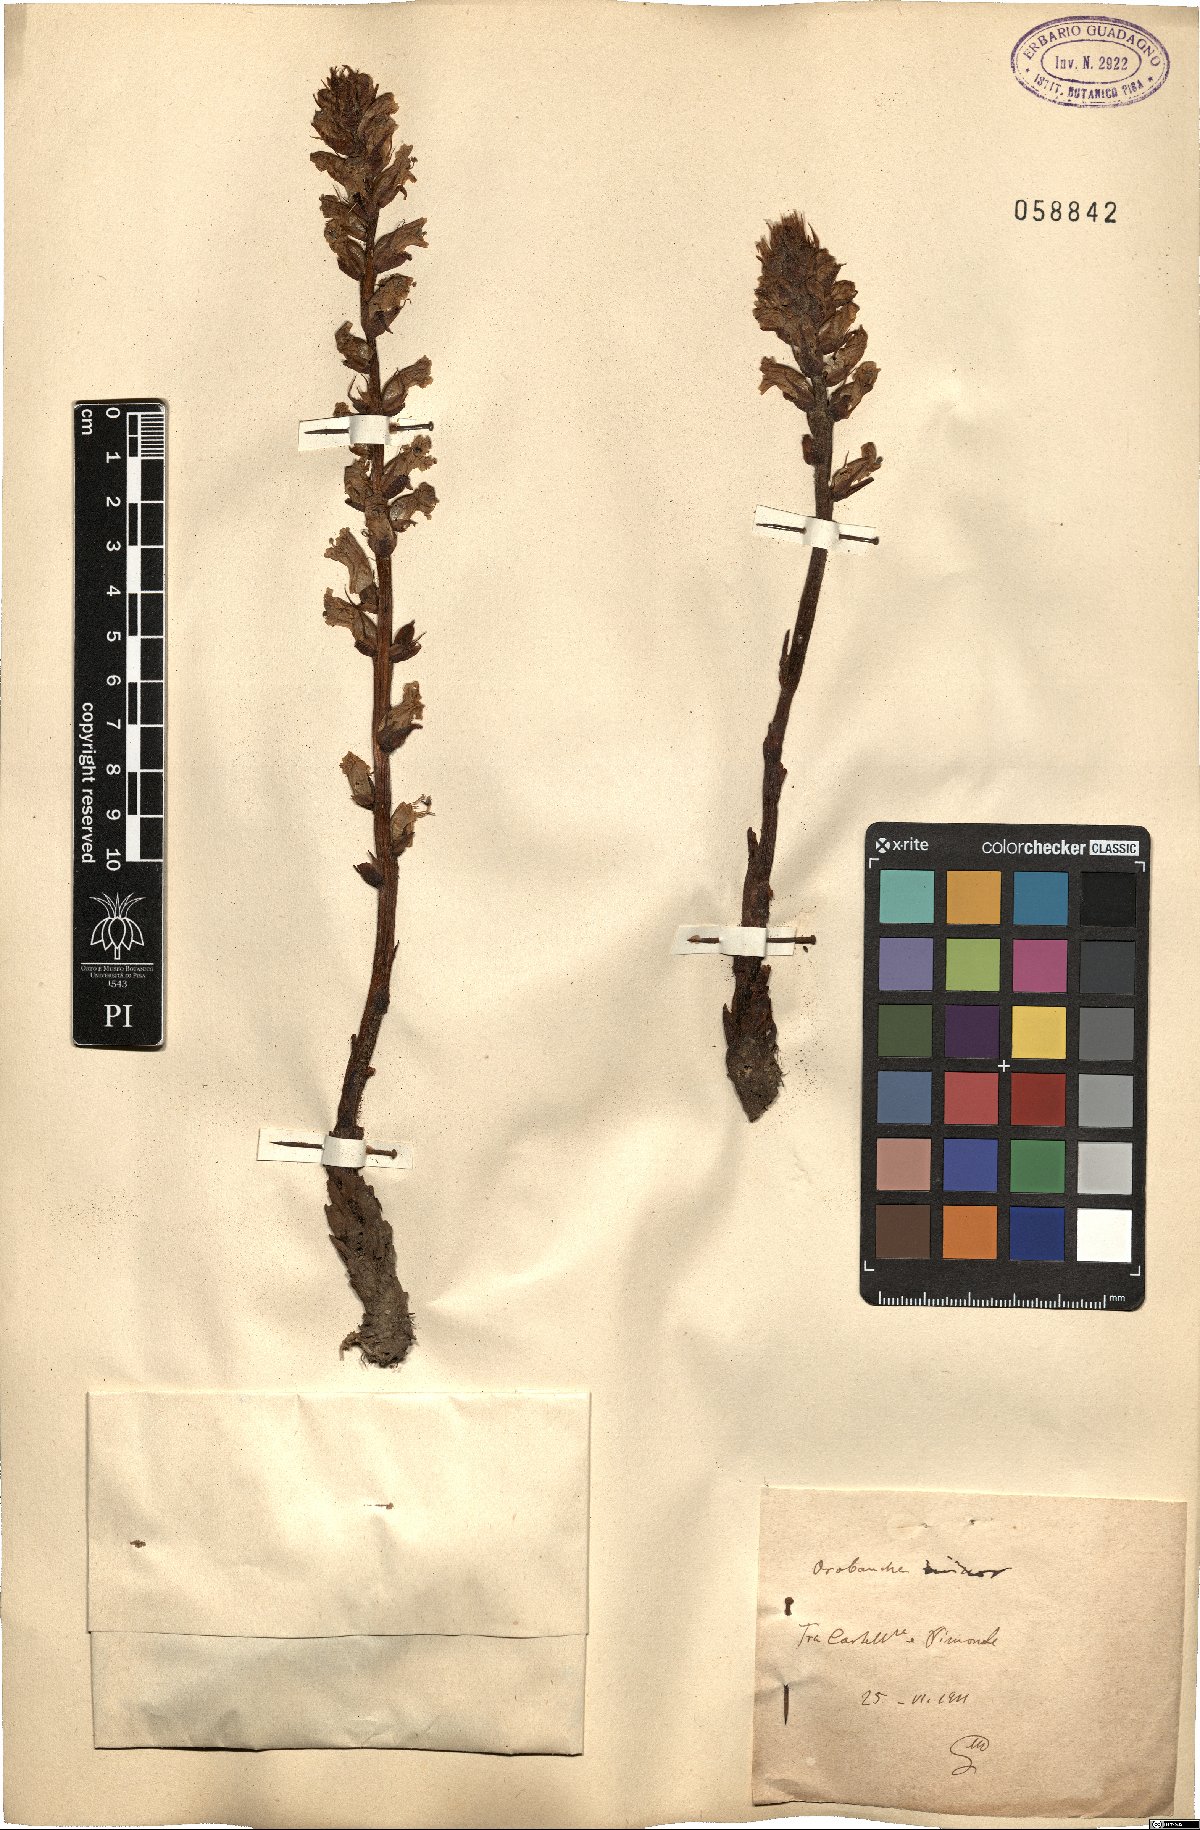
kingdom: Plantae
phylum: Tracheophyta
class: Magnoliopsida
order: Lamiales
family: Orobanchaceae
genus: Orobanche
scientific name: Orobanche minor
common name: Common broomrape
